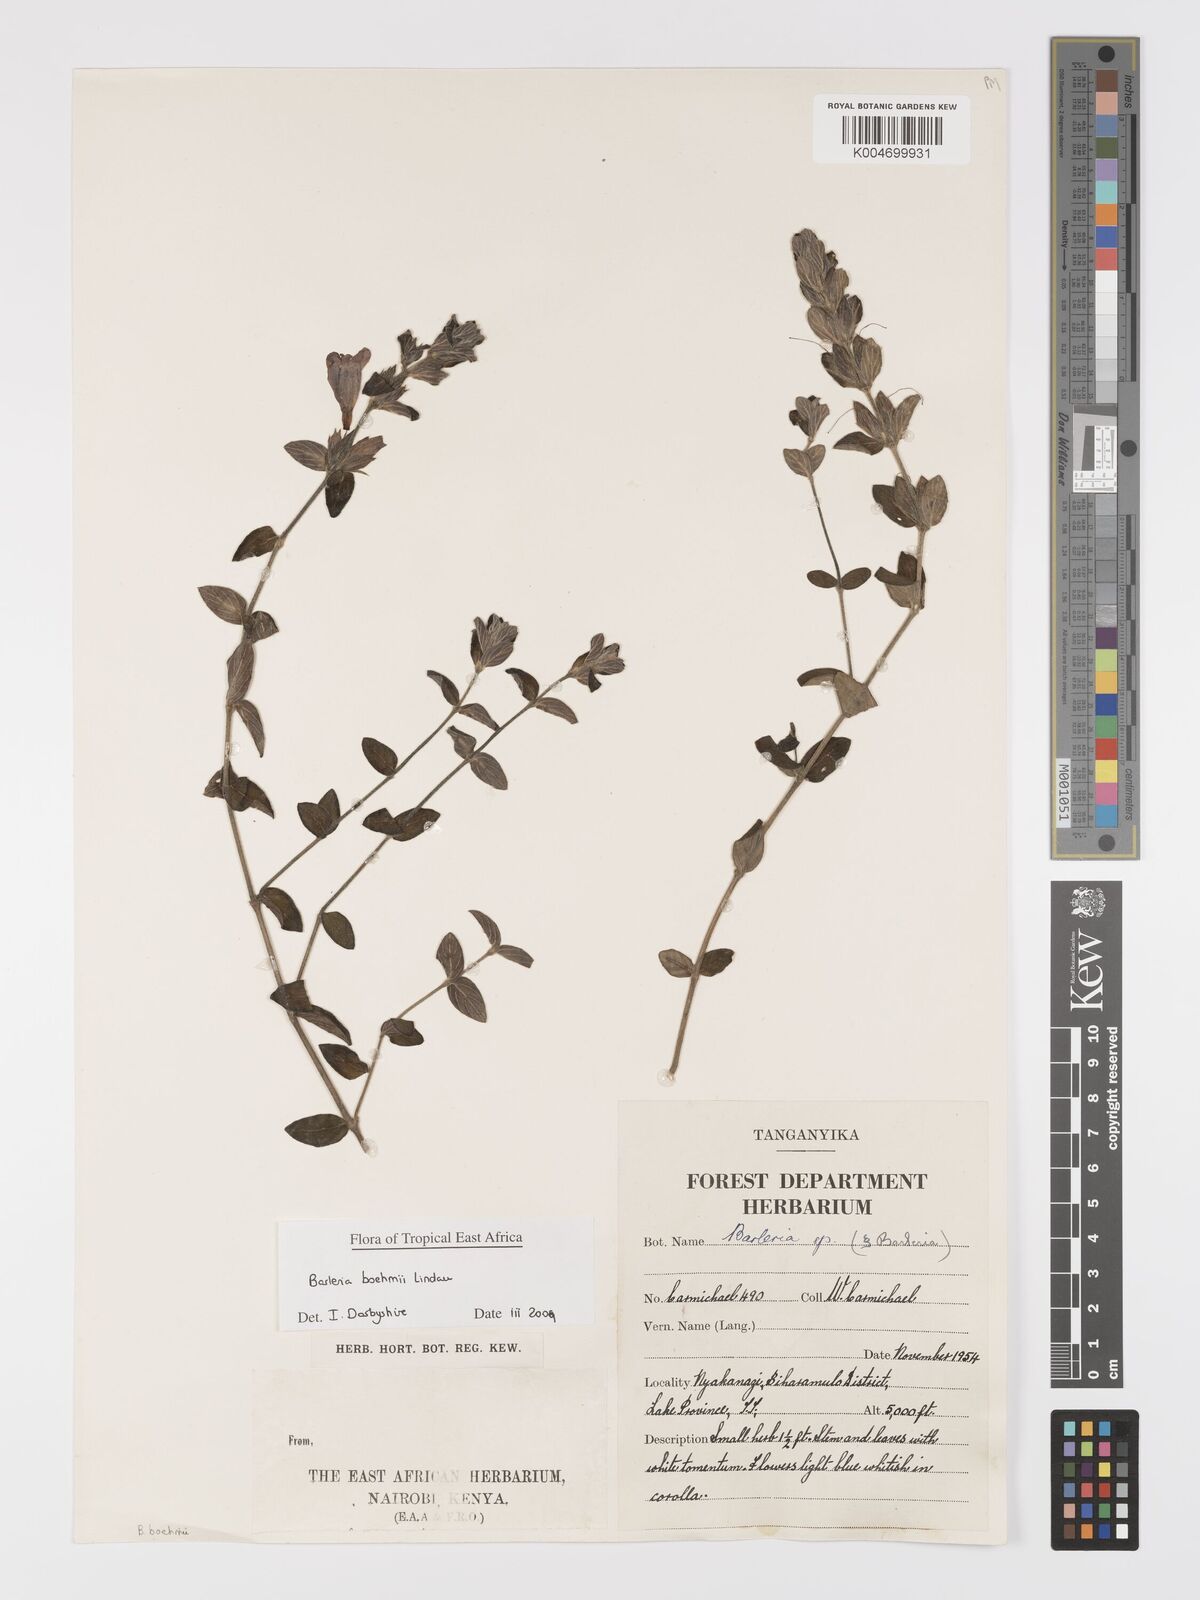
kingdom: Plantae
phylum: Tracheophyta
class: Magnoliopsida
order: Lamiales
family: Acanthaceae
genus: Barleria
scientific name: Barleria boehmii
